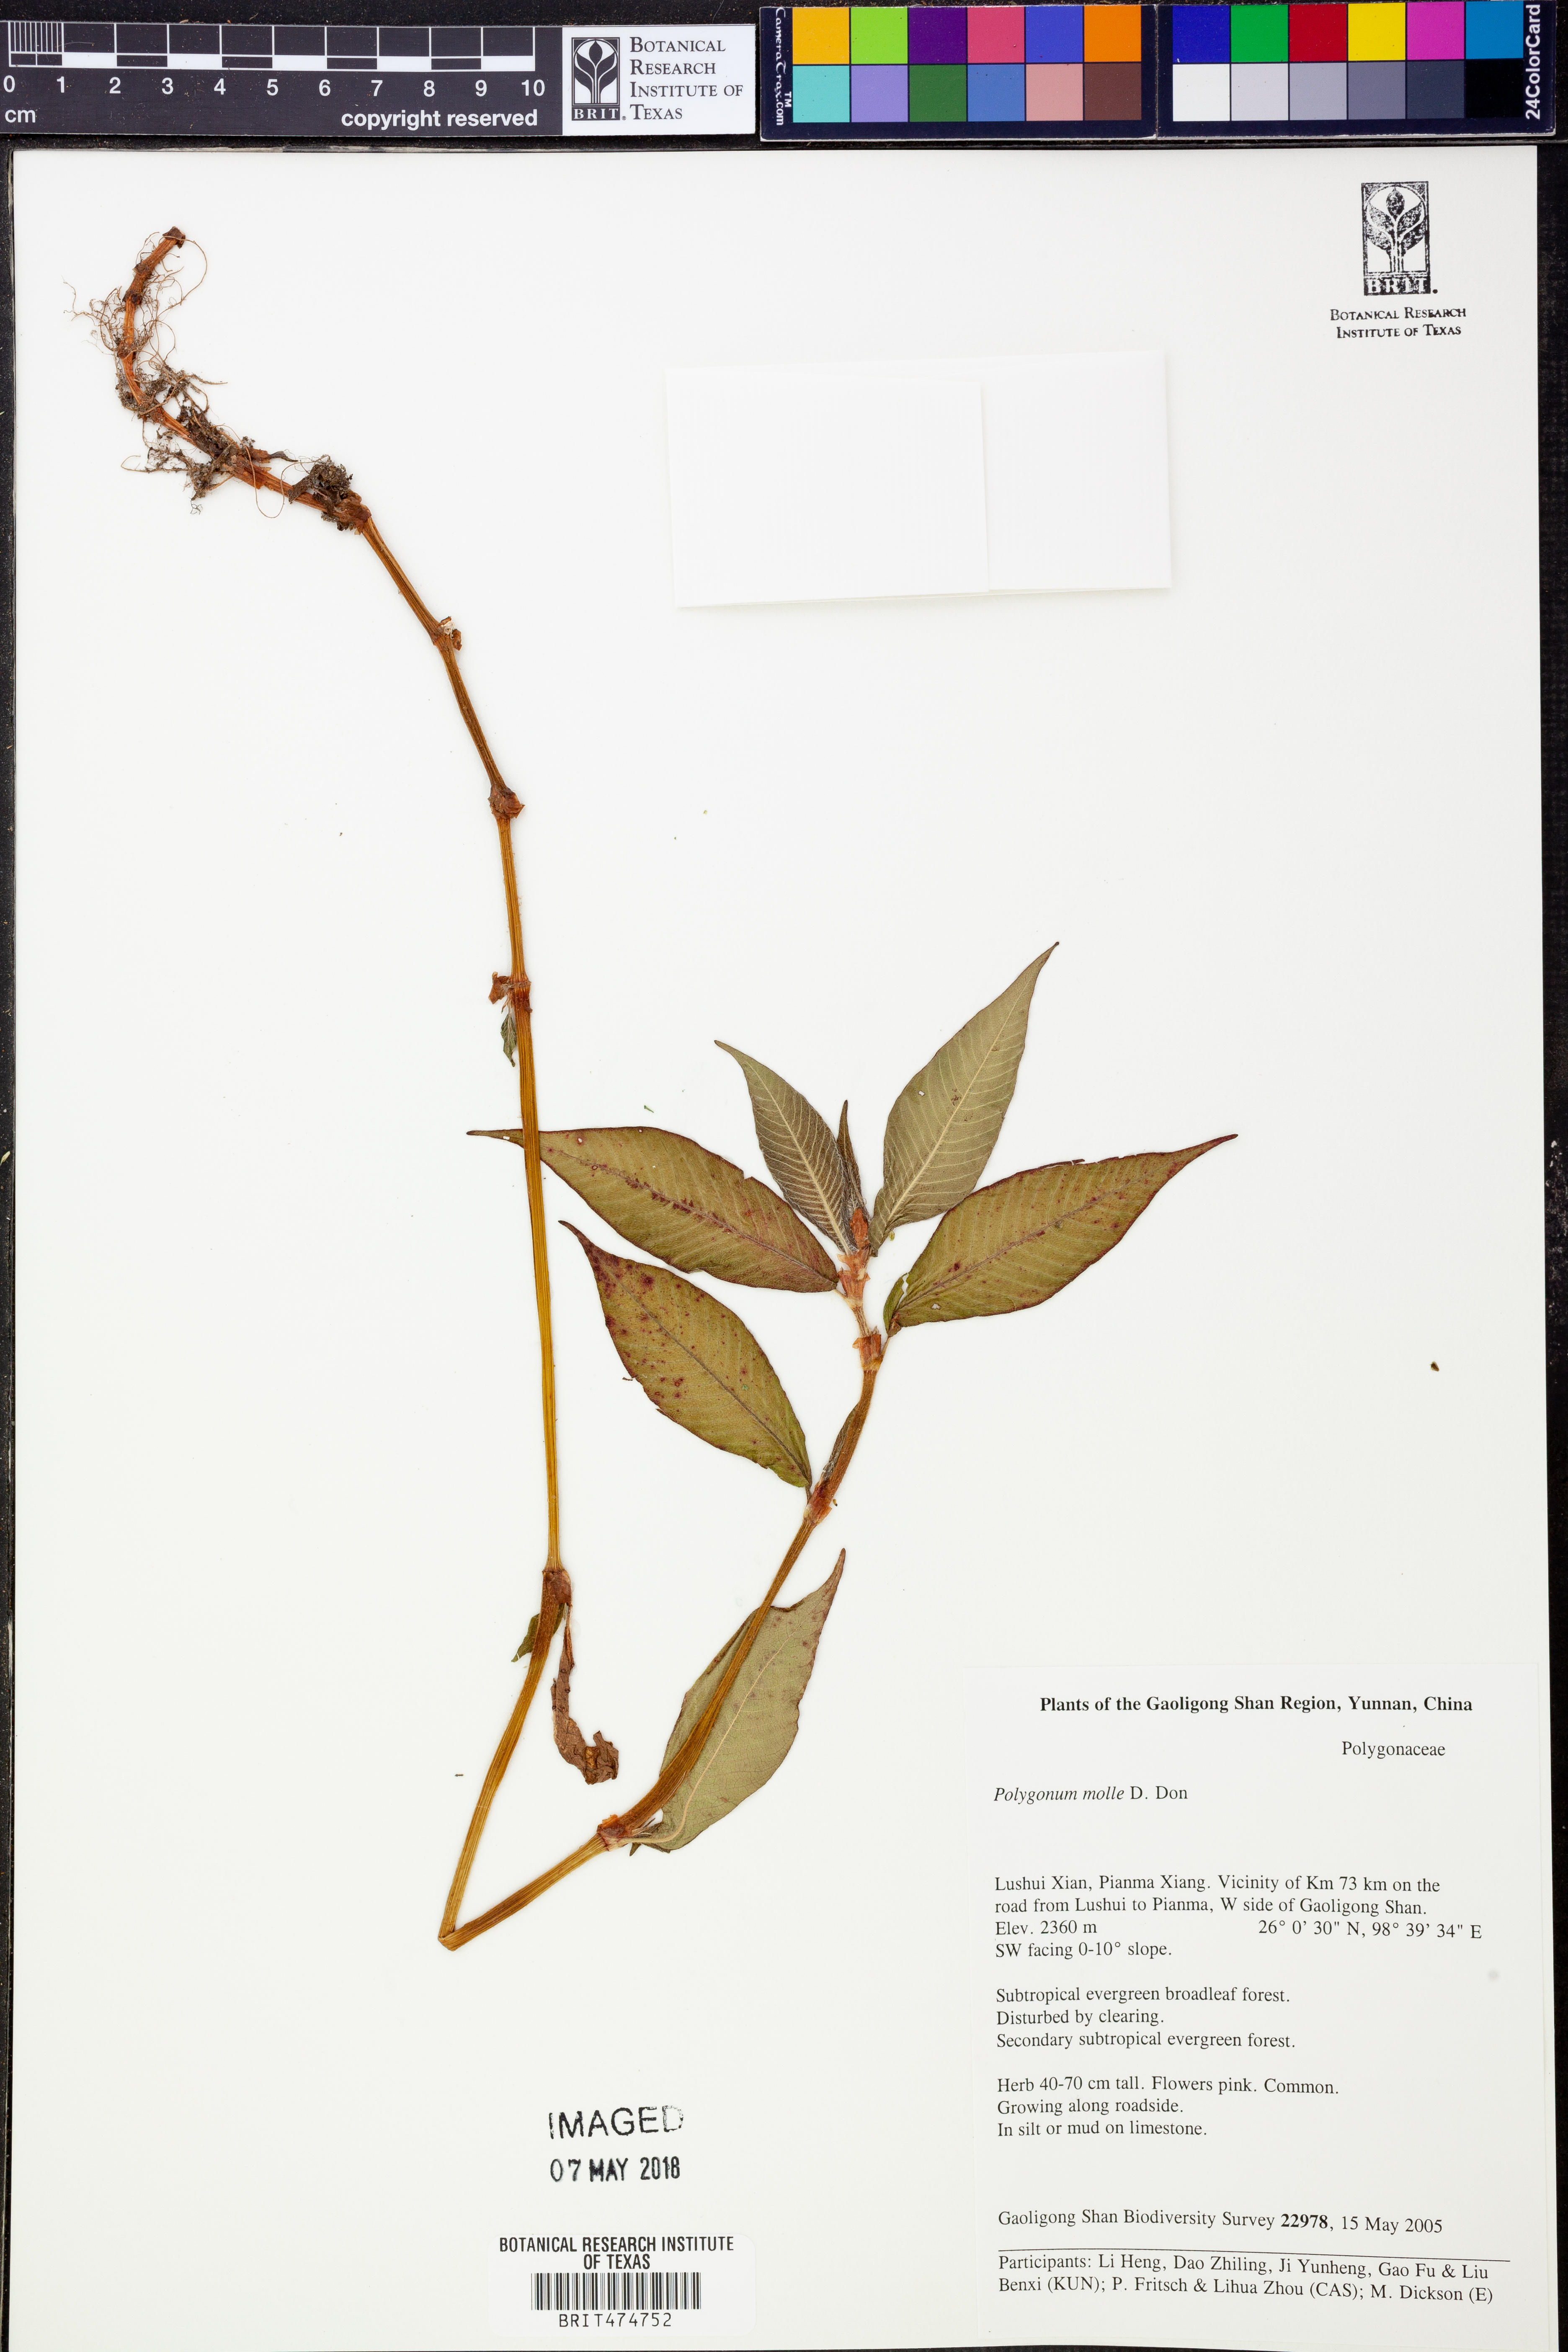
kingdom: Plantae
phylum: Tracheophyta
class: Magnoliopsida
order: Caryophyllales
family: Polygonaceae
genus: Koenigia
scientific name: Koenigia mollis
